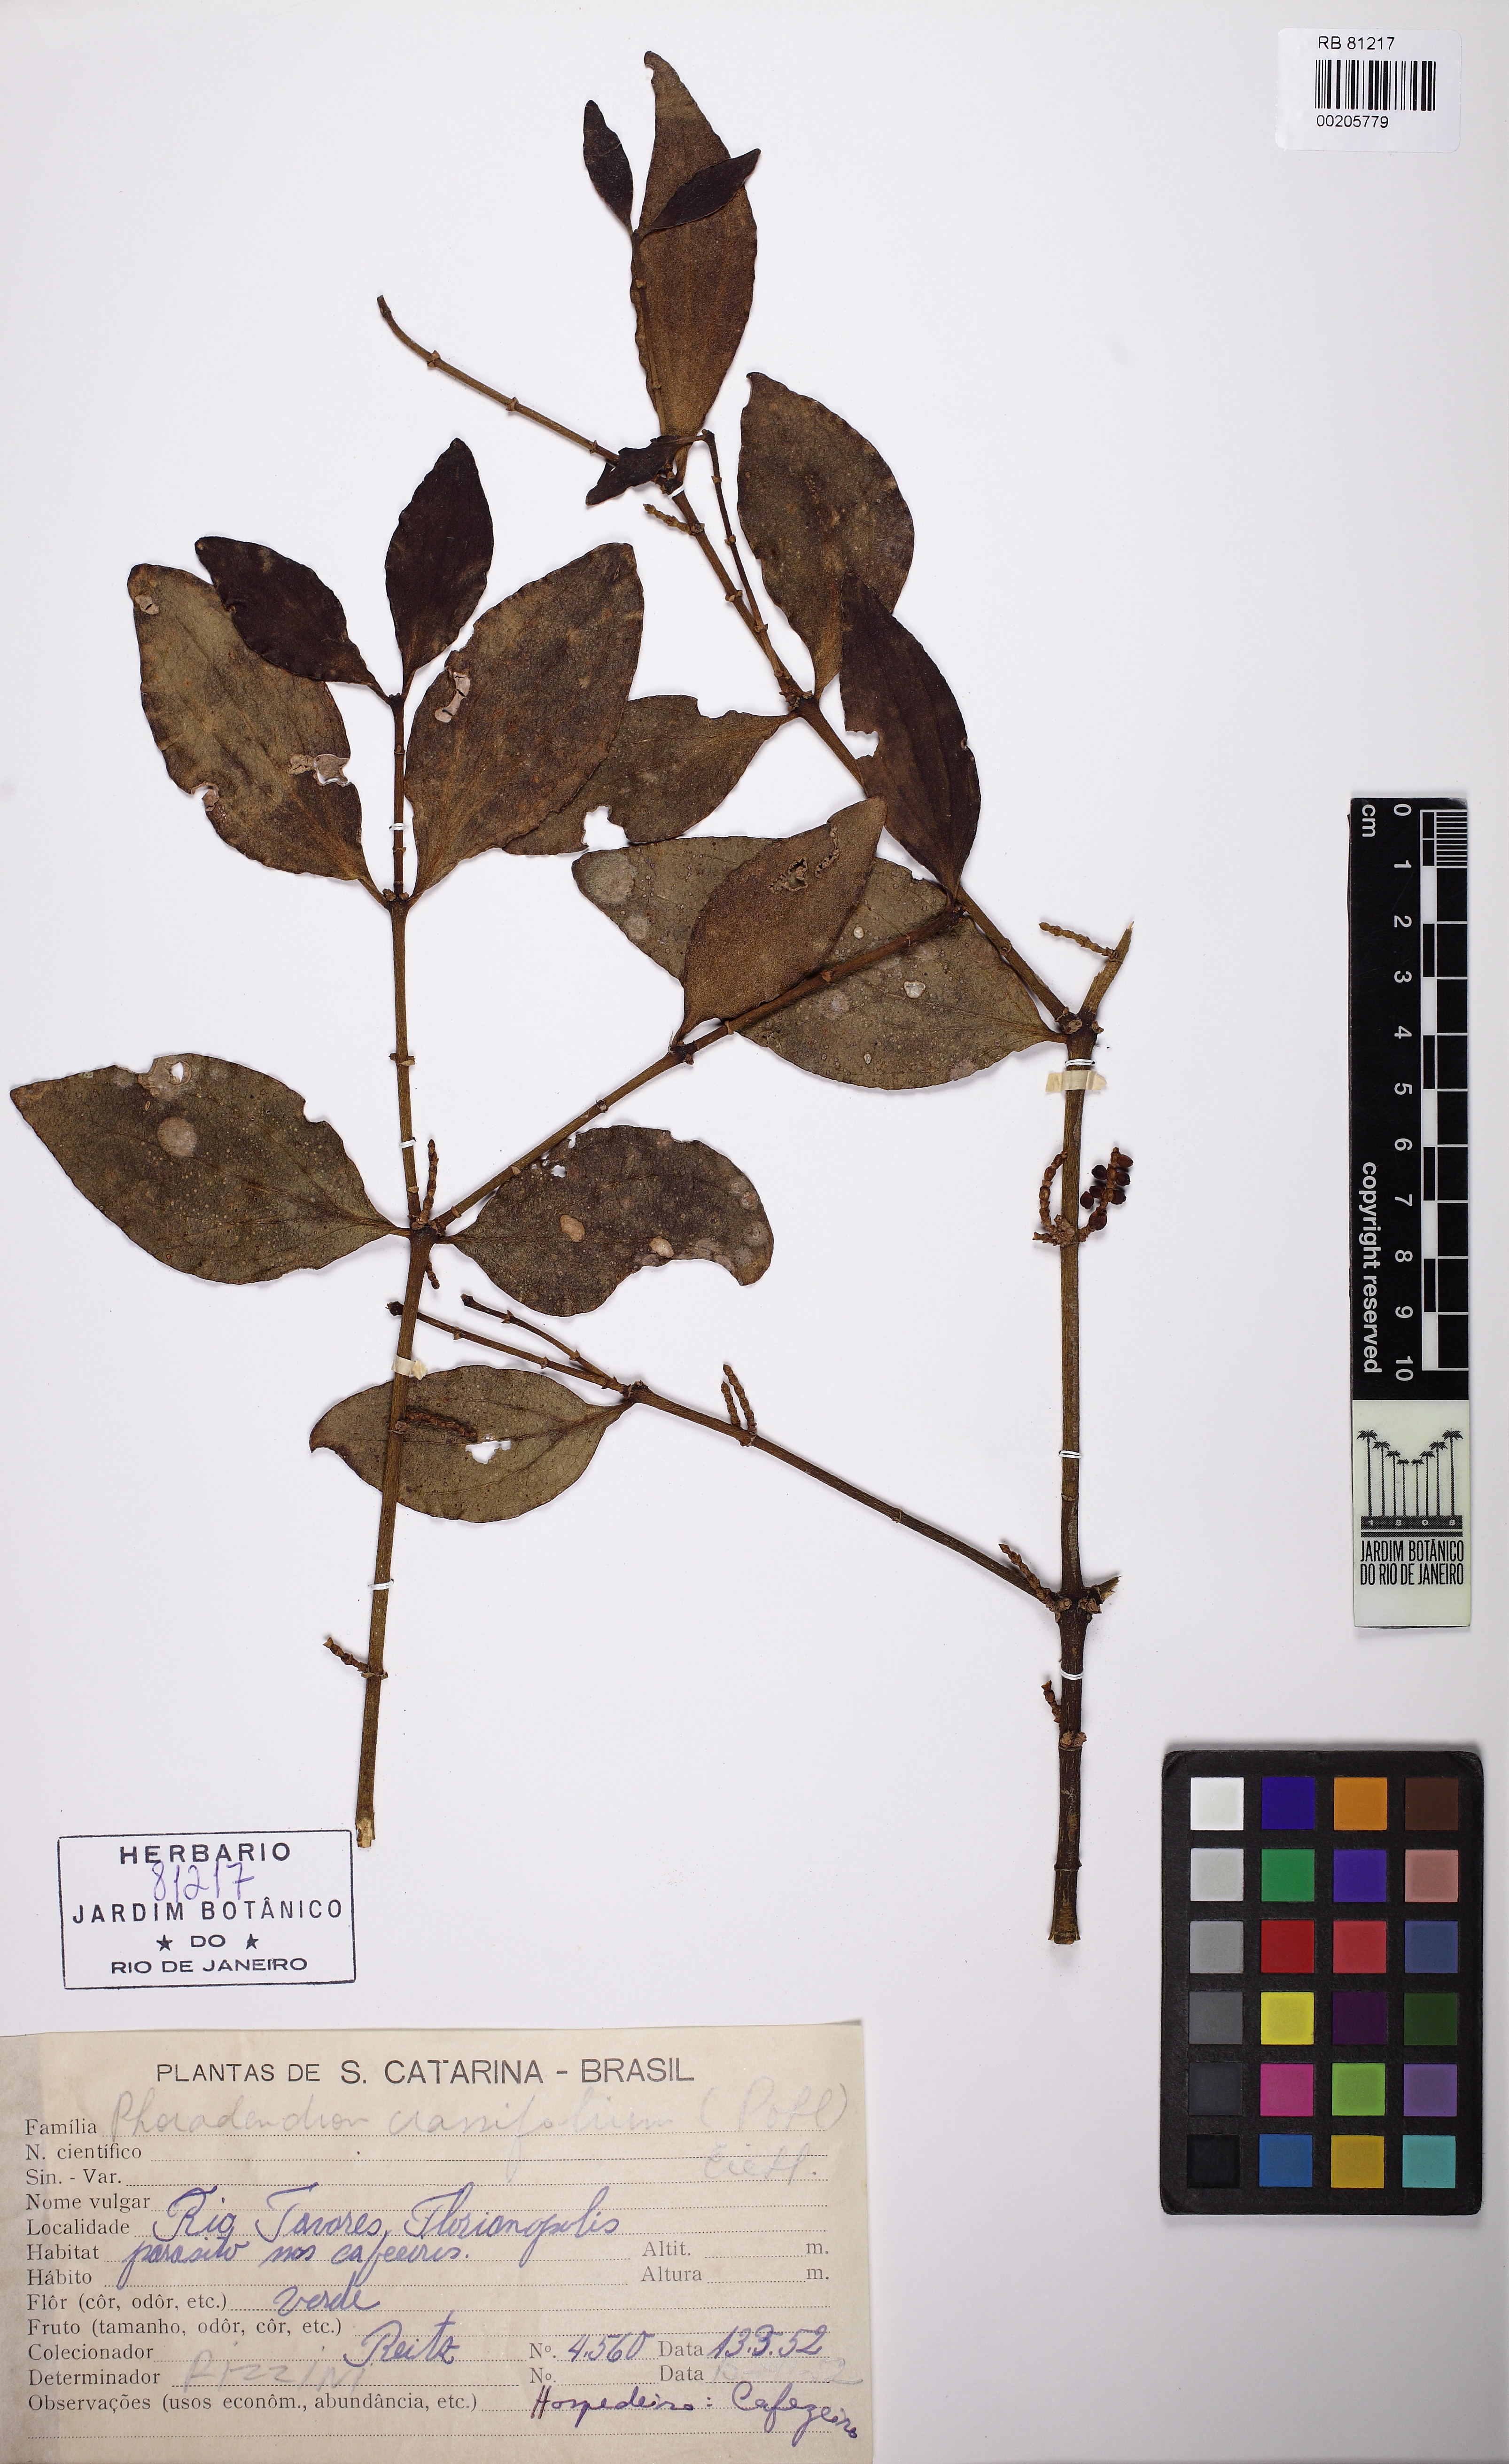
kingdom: Plantae
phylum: Tracheophyta
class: Magnoliopsida
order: Santalales
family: Viscaceae
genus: Phoradendron
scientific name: Phoradendron crassifolium
